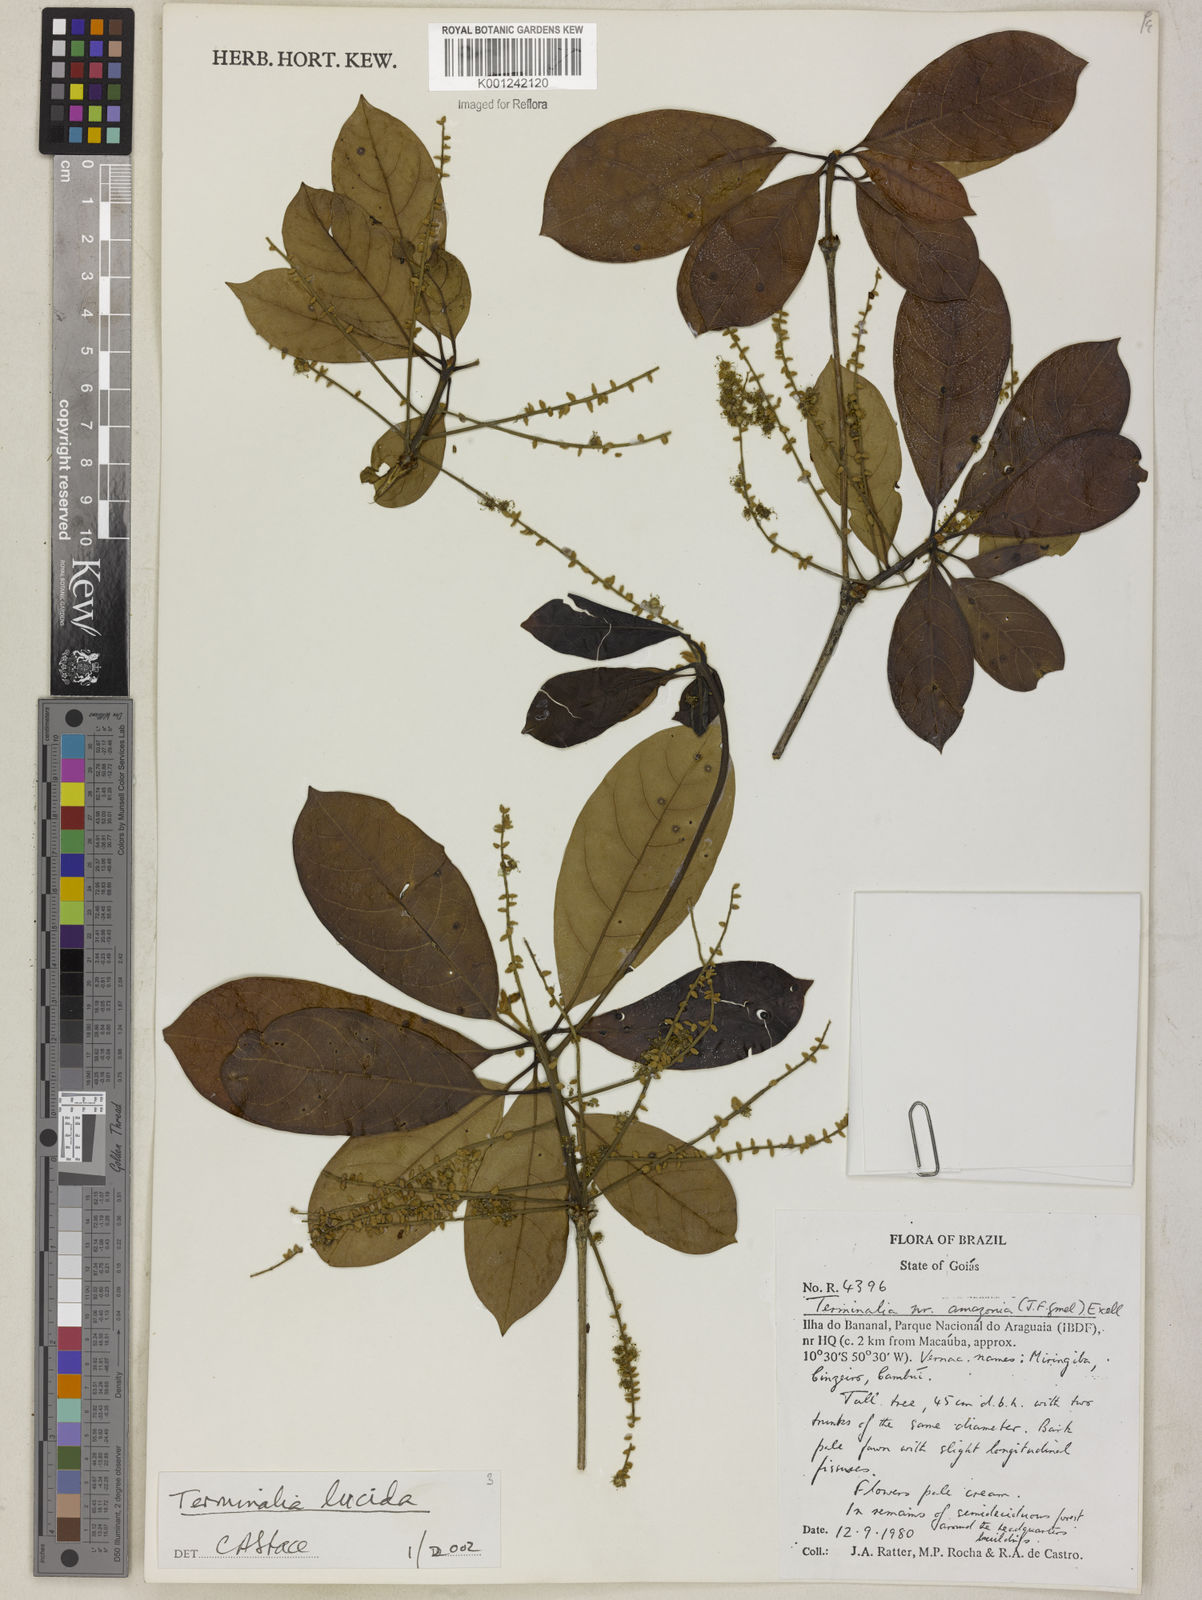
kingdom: Plantae
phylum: Tracheophyta
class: Magnoliopsida
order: Myrtales
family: Combretaceae
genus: Terminalia
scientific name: Terminalia lucida
